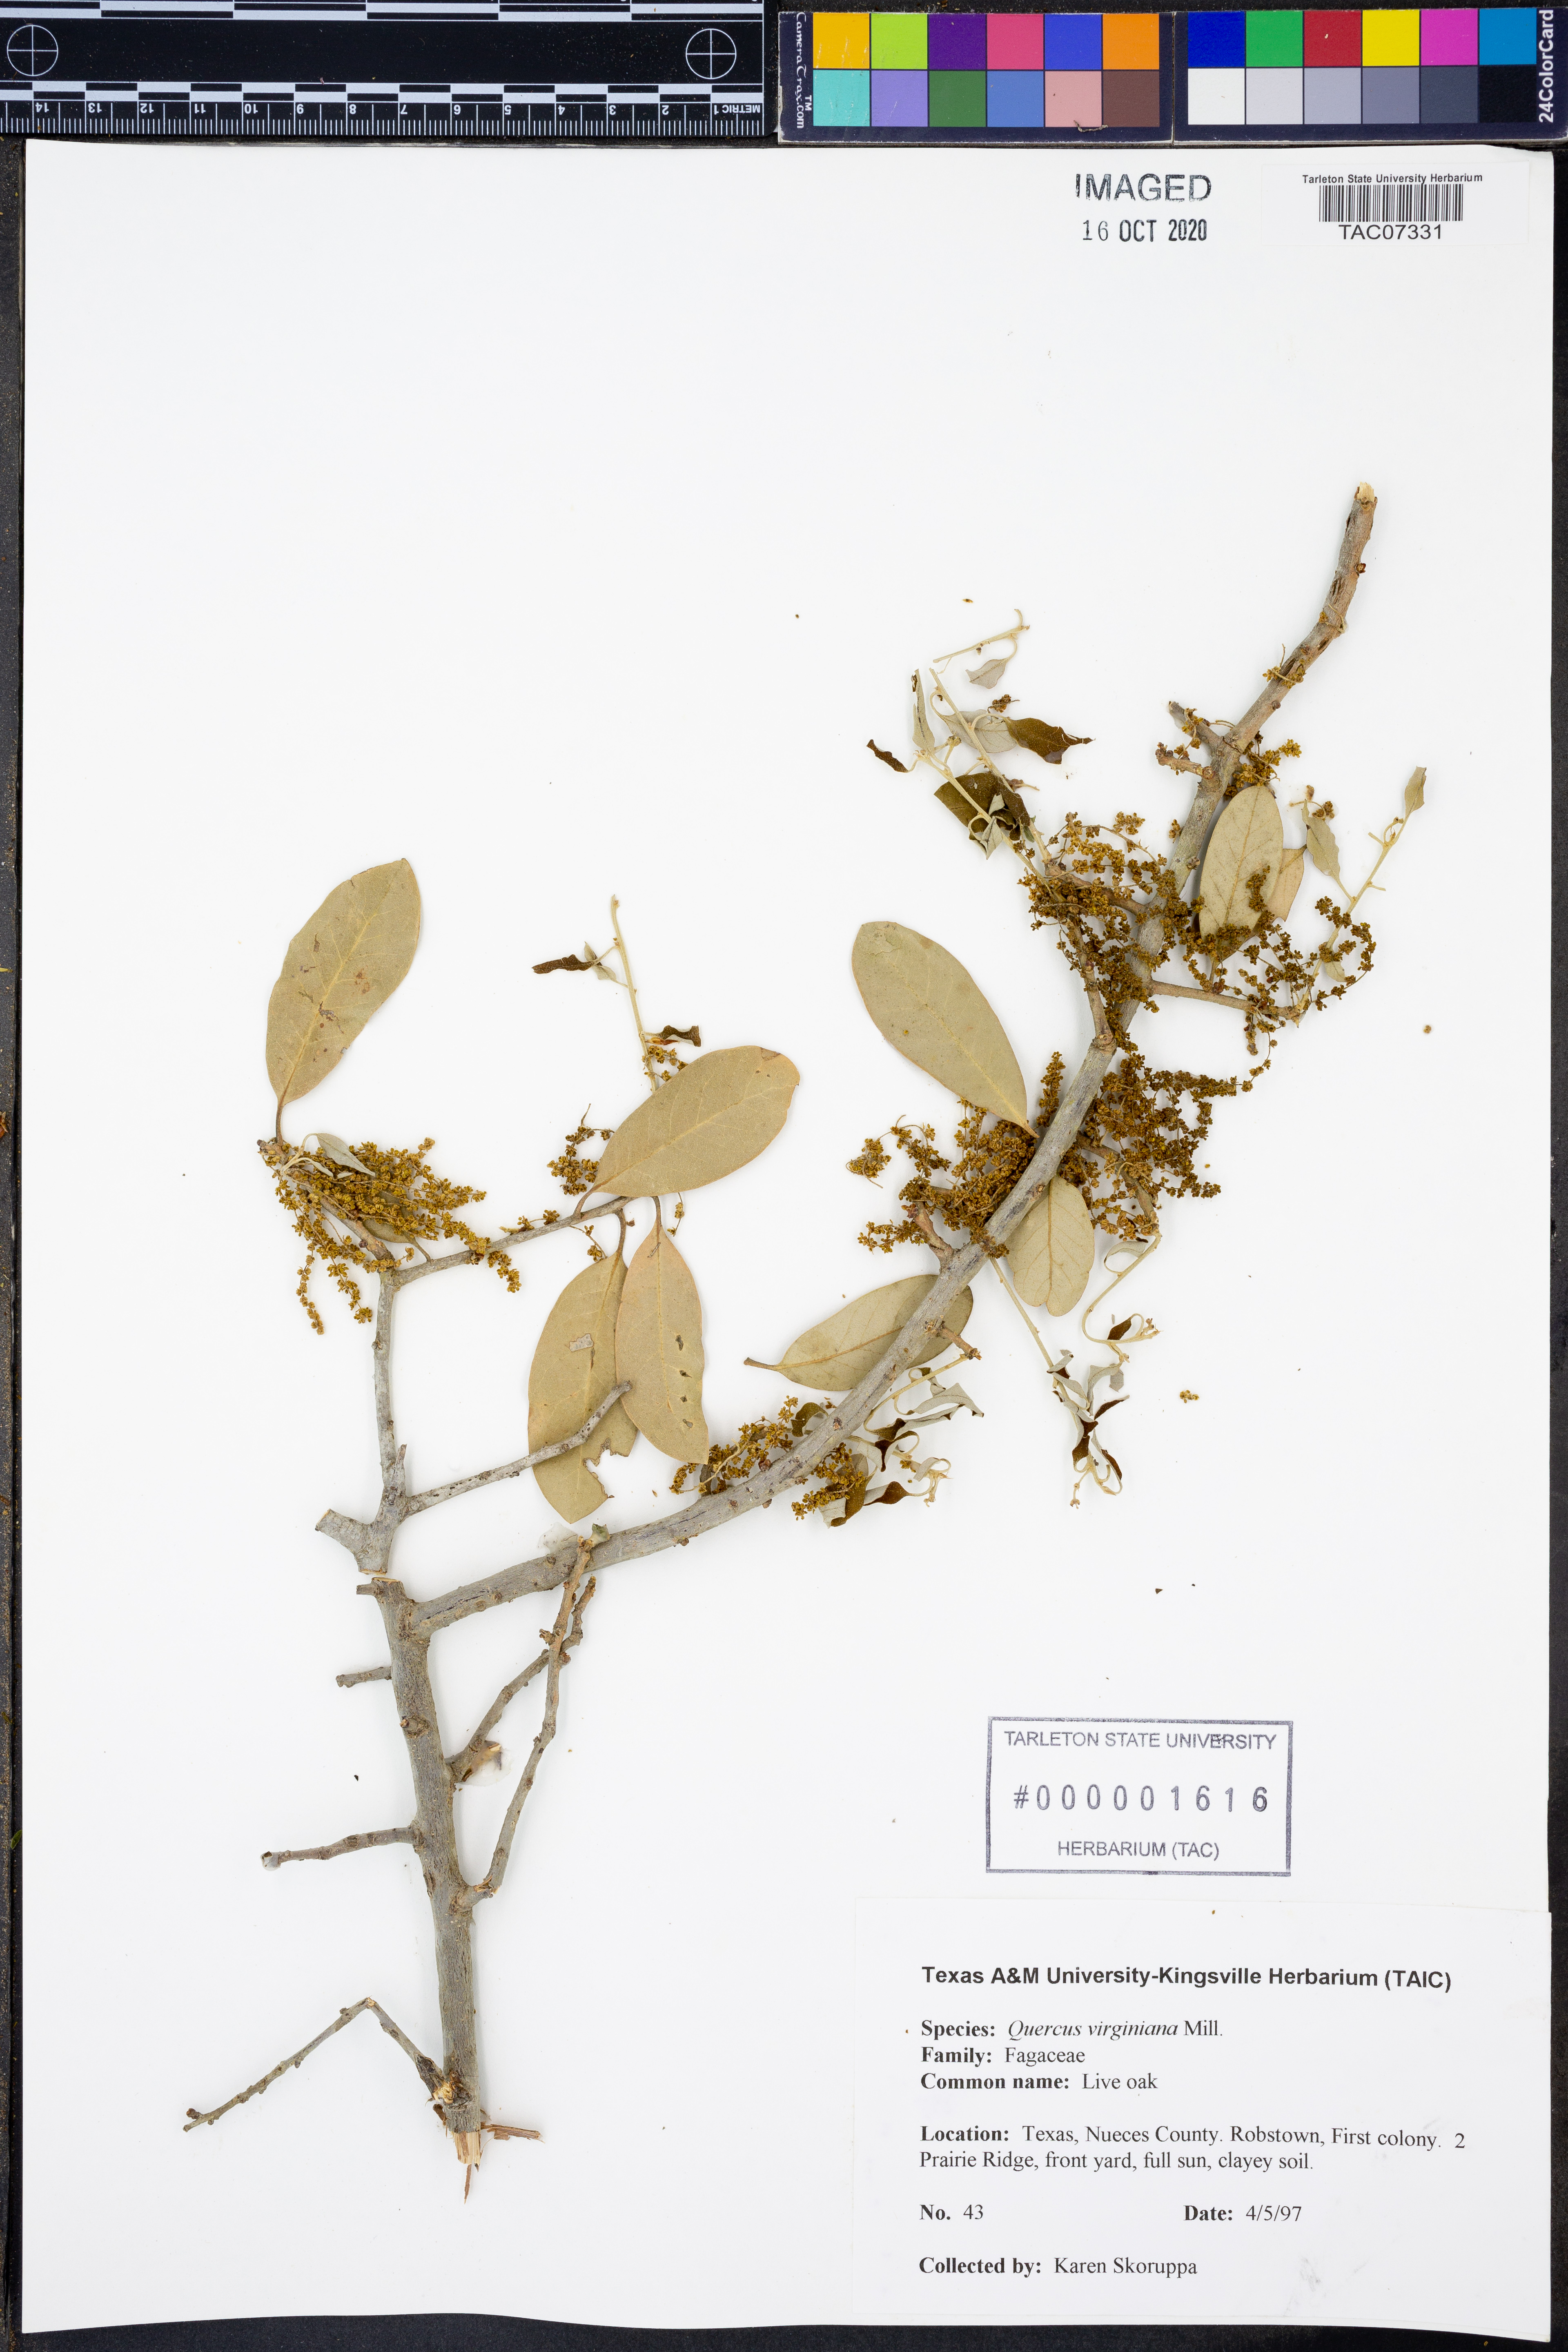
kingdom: Plantae
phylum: Tracheophyta
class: Magnoliopsida
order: Fagales
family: Fagaceae
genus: Quercus
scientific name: Quercus virginiana
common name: Southern live oak
